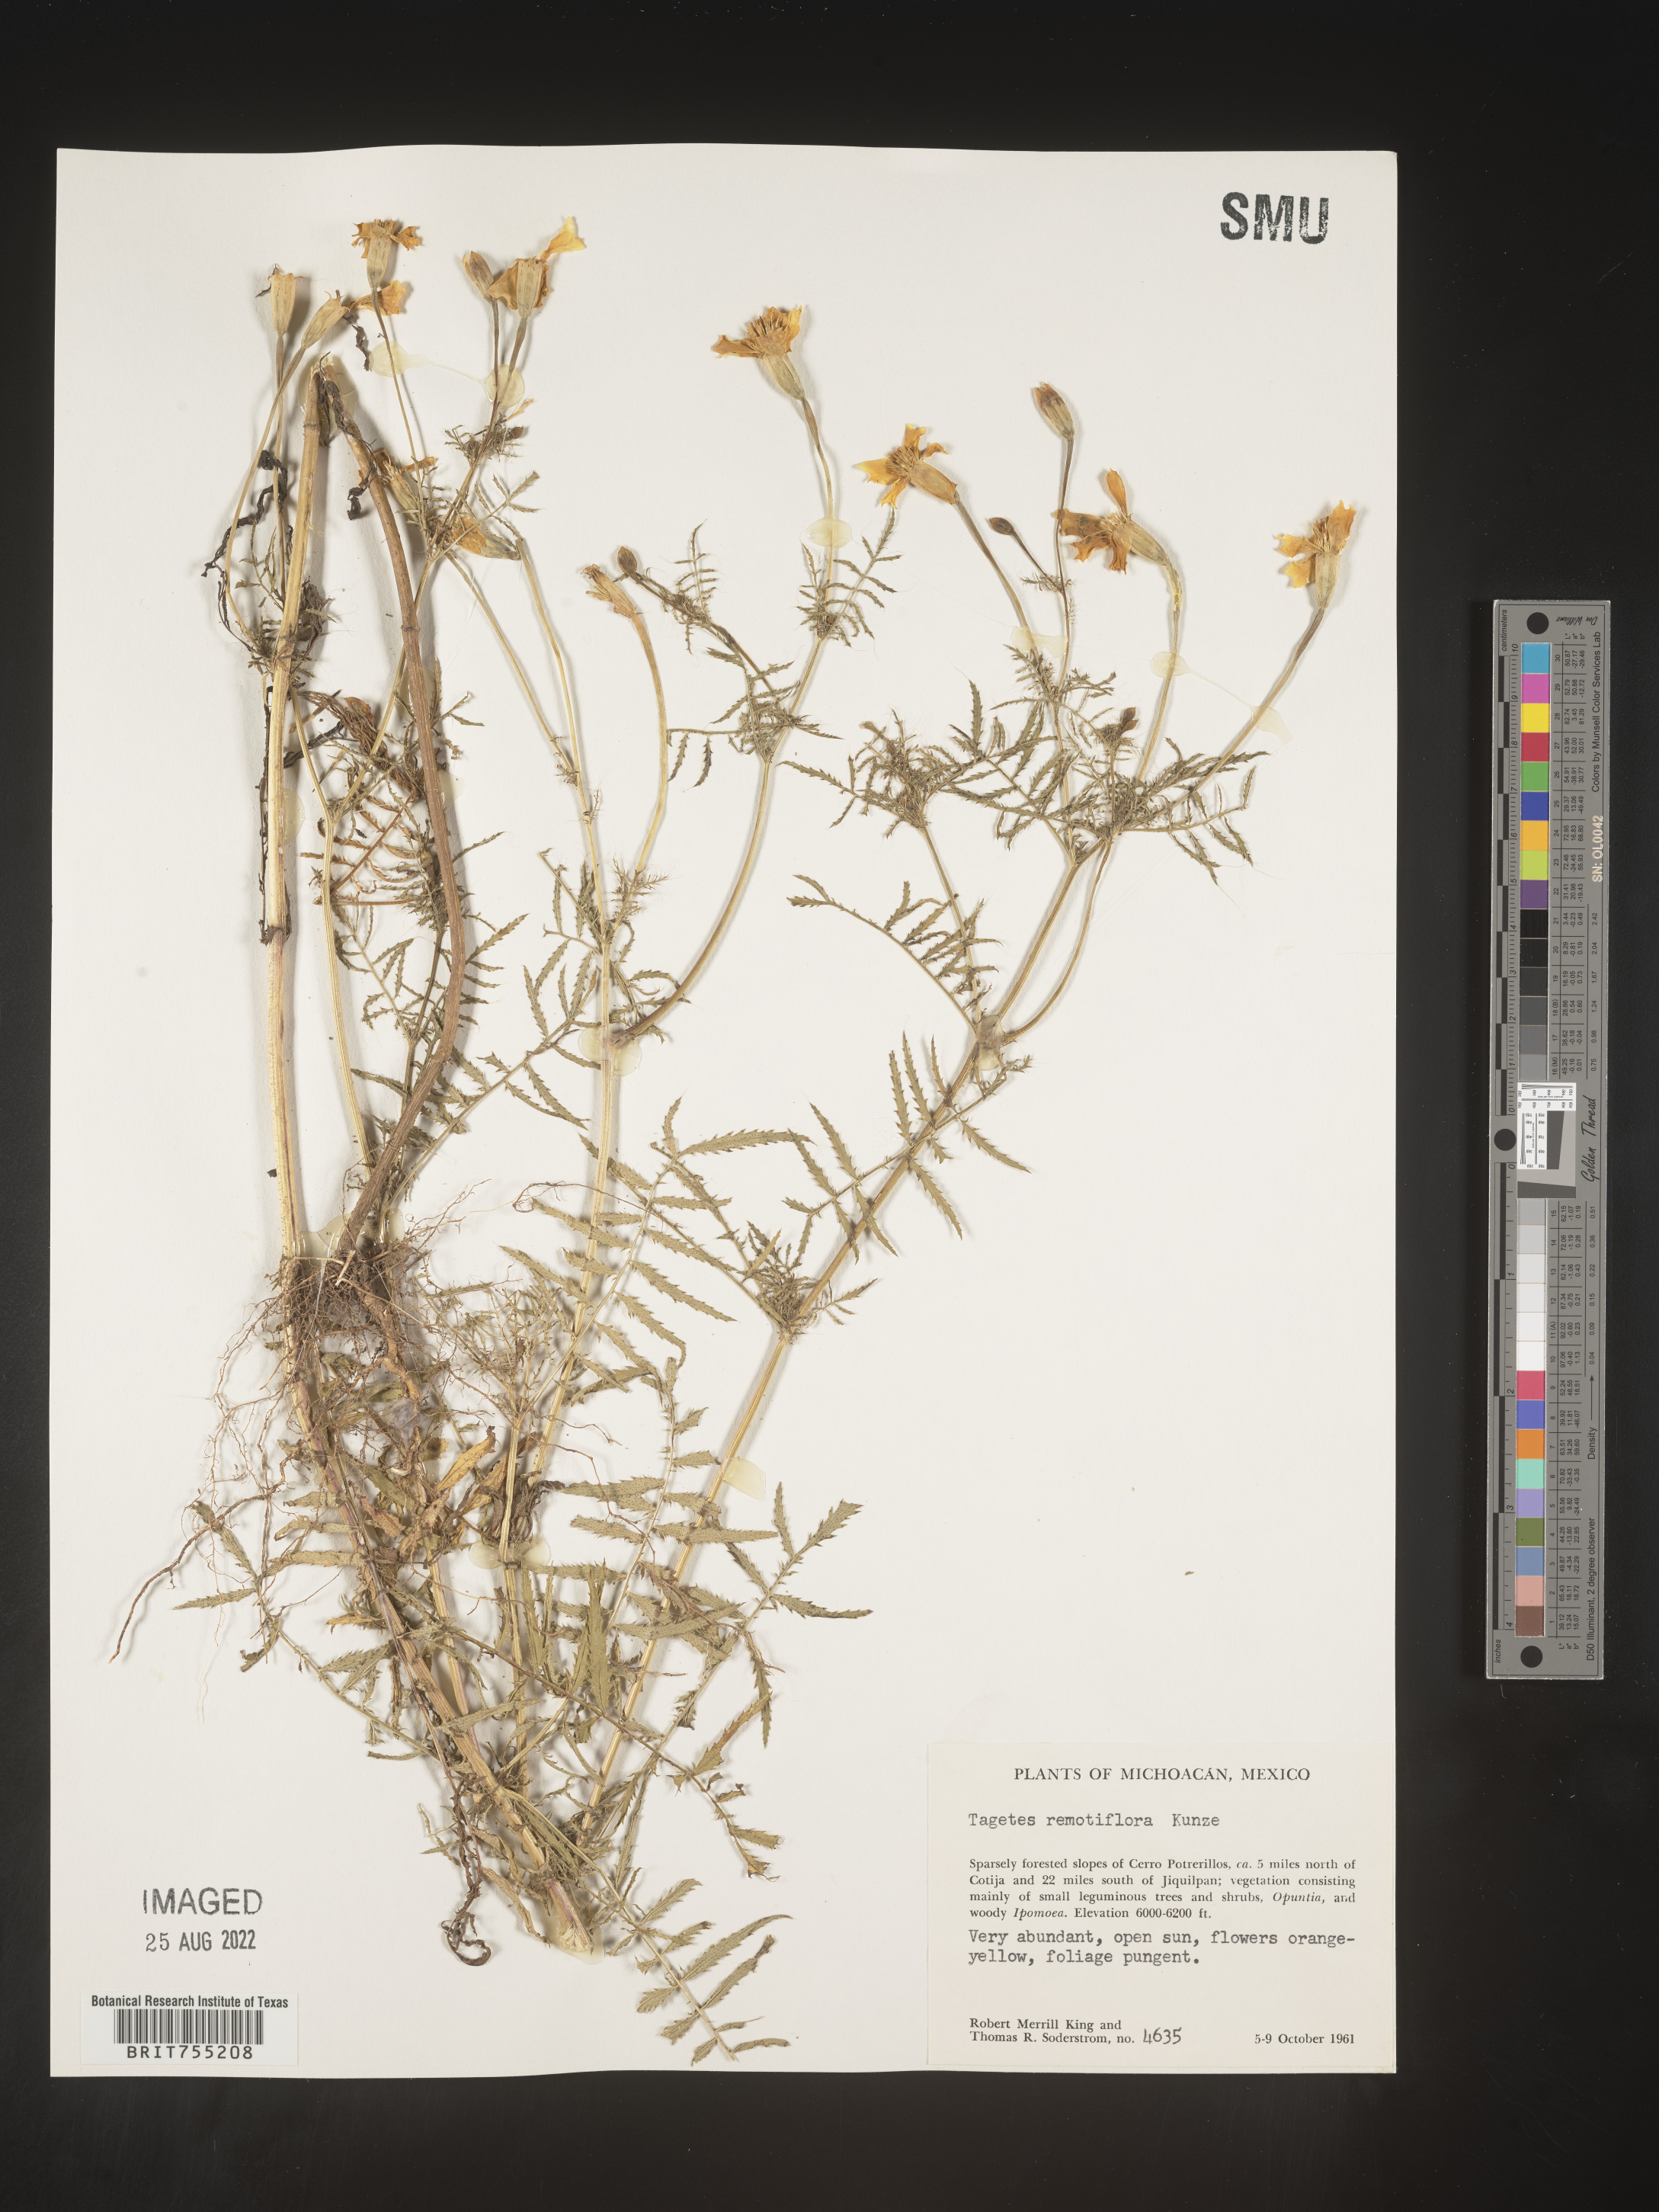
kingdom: Plantae
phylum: Tracheophyta
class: Magnoliopsida
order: Asterales
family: Asteraceae
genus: Tagetes
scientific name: Tagetes
